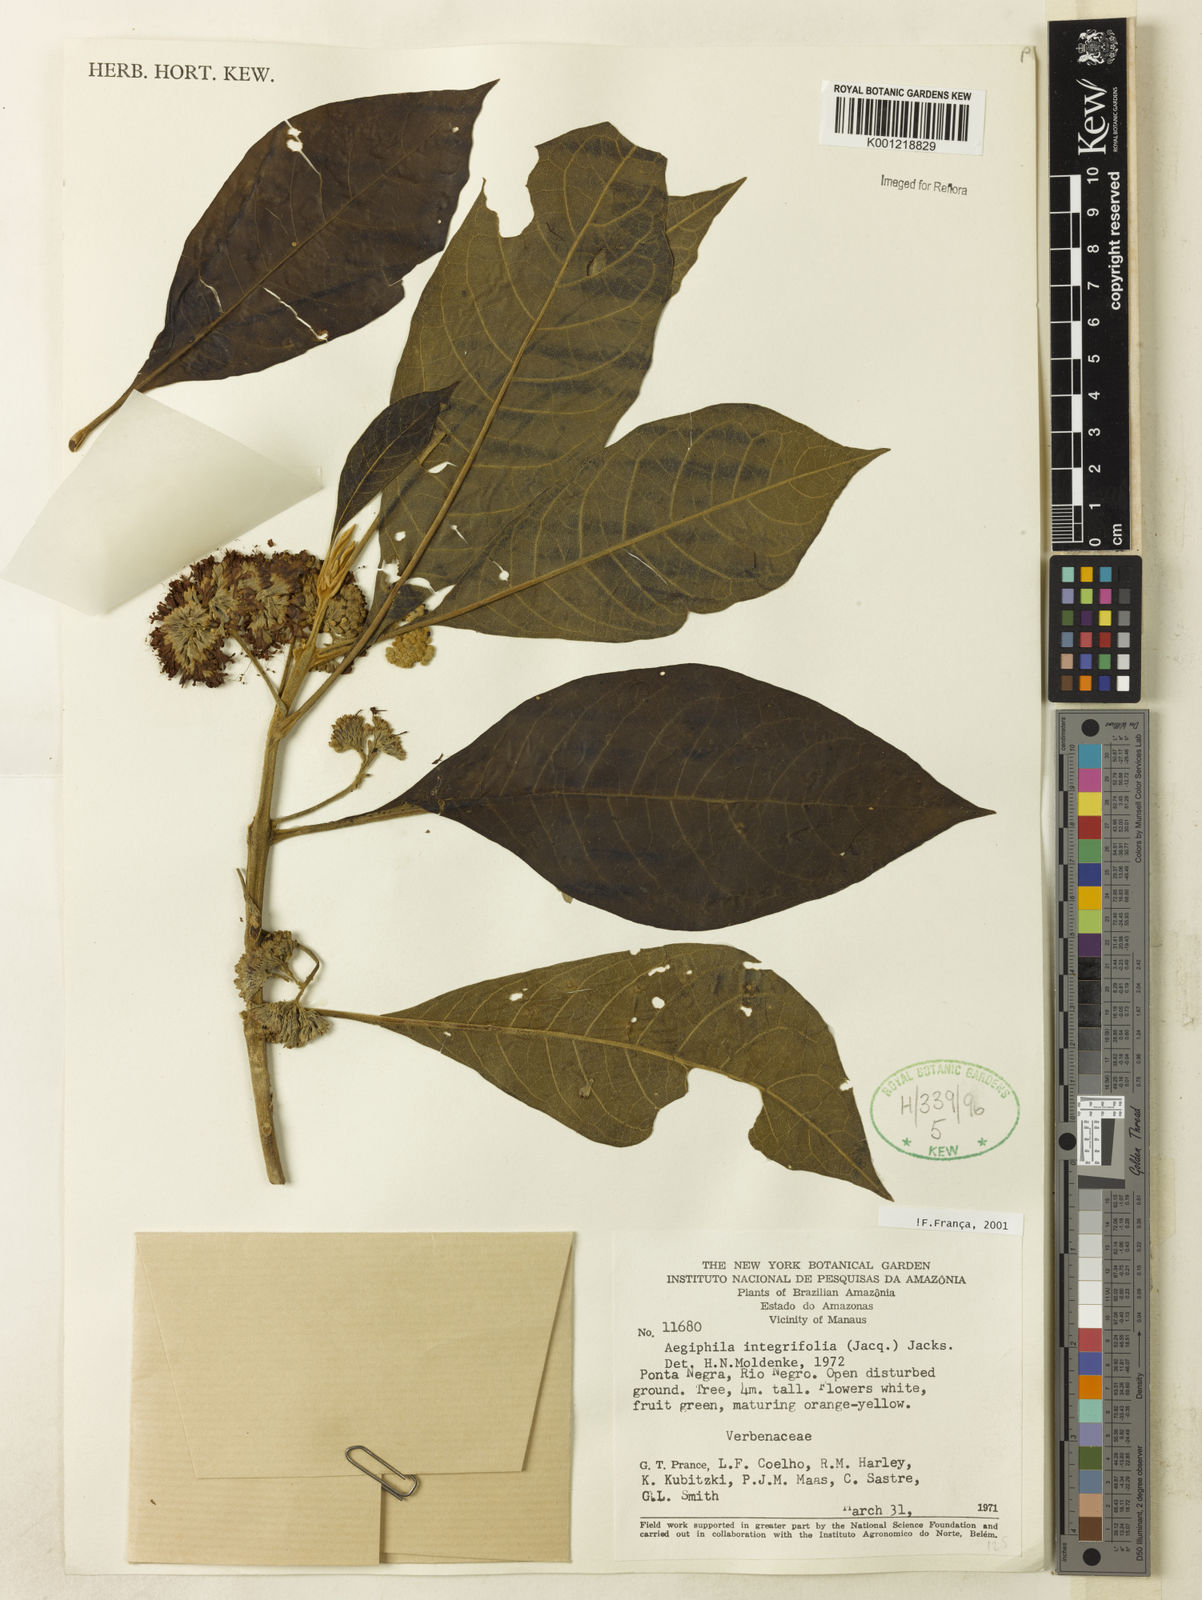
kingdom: Plantae
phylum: Tracheophyta
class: Magnoliopsida
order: Lamiales
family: Lamiaceae
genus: Aegiphila
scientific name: Aegiphila
